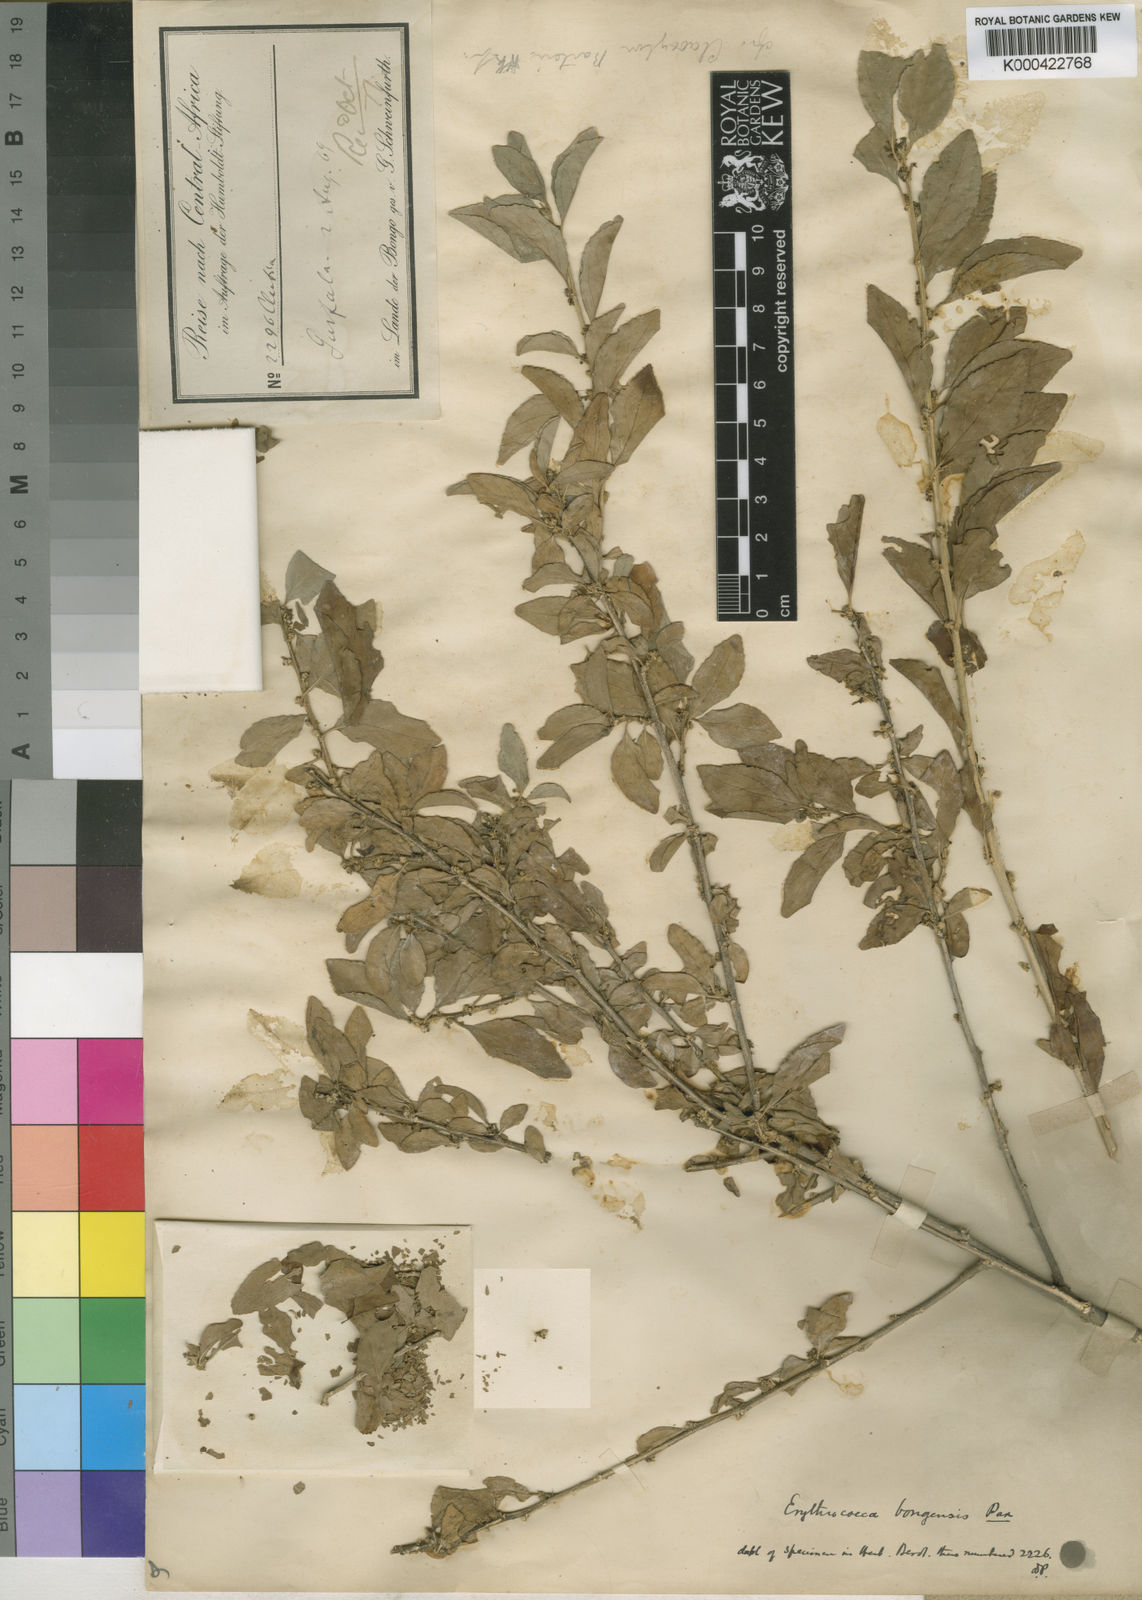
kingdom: Plantae
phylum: Tracheophyta
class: Magnoliopsida
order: Malpighiales
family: Euphorbiaceae
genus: Erythrococca
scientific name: Erythrococca bongensis
